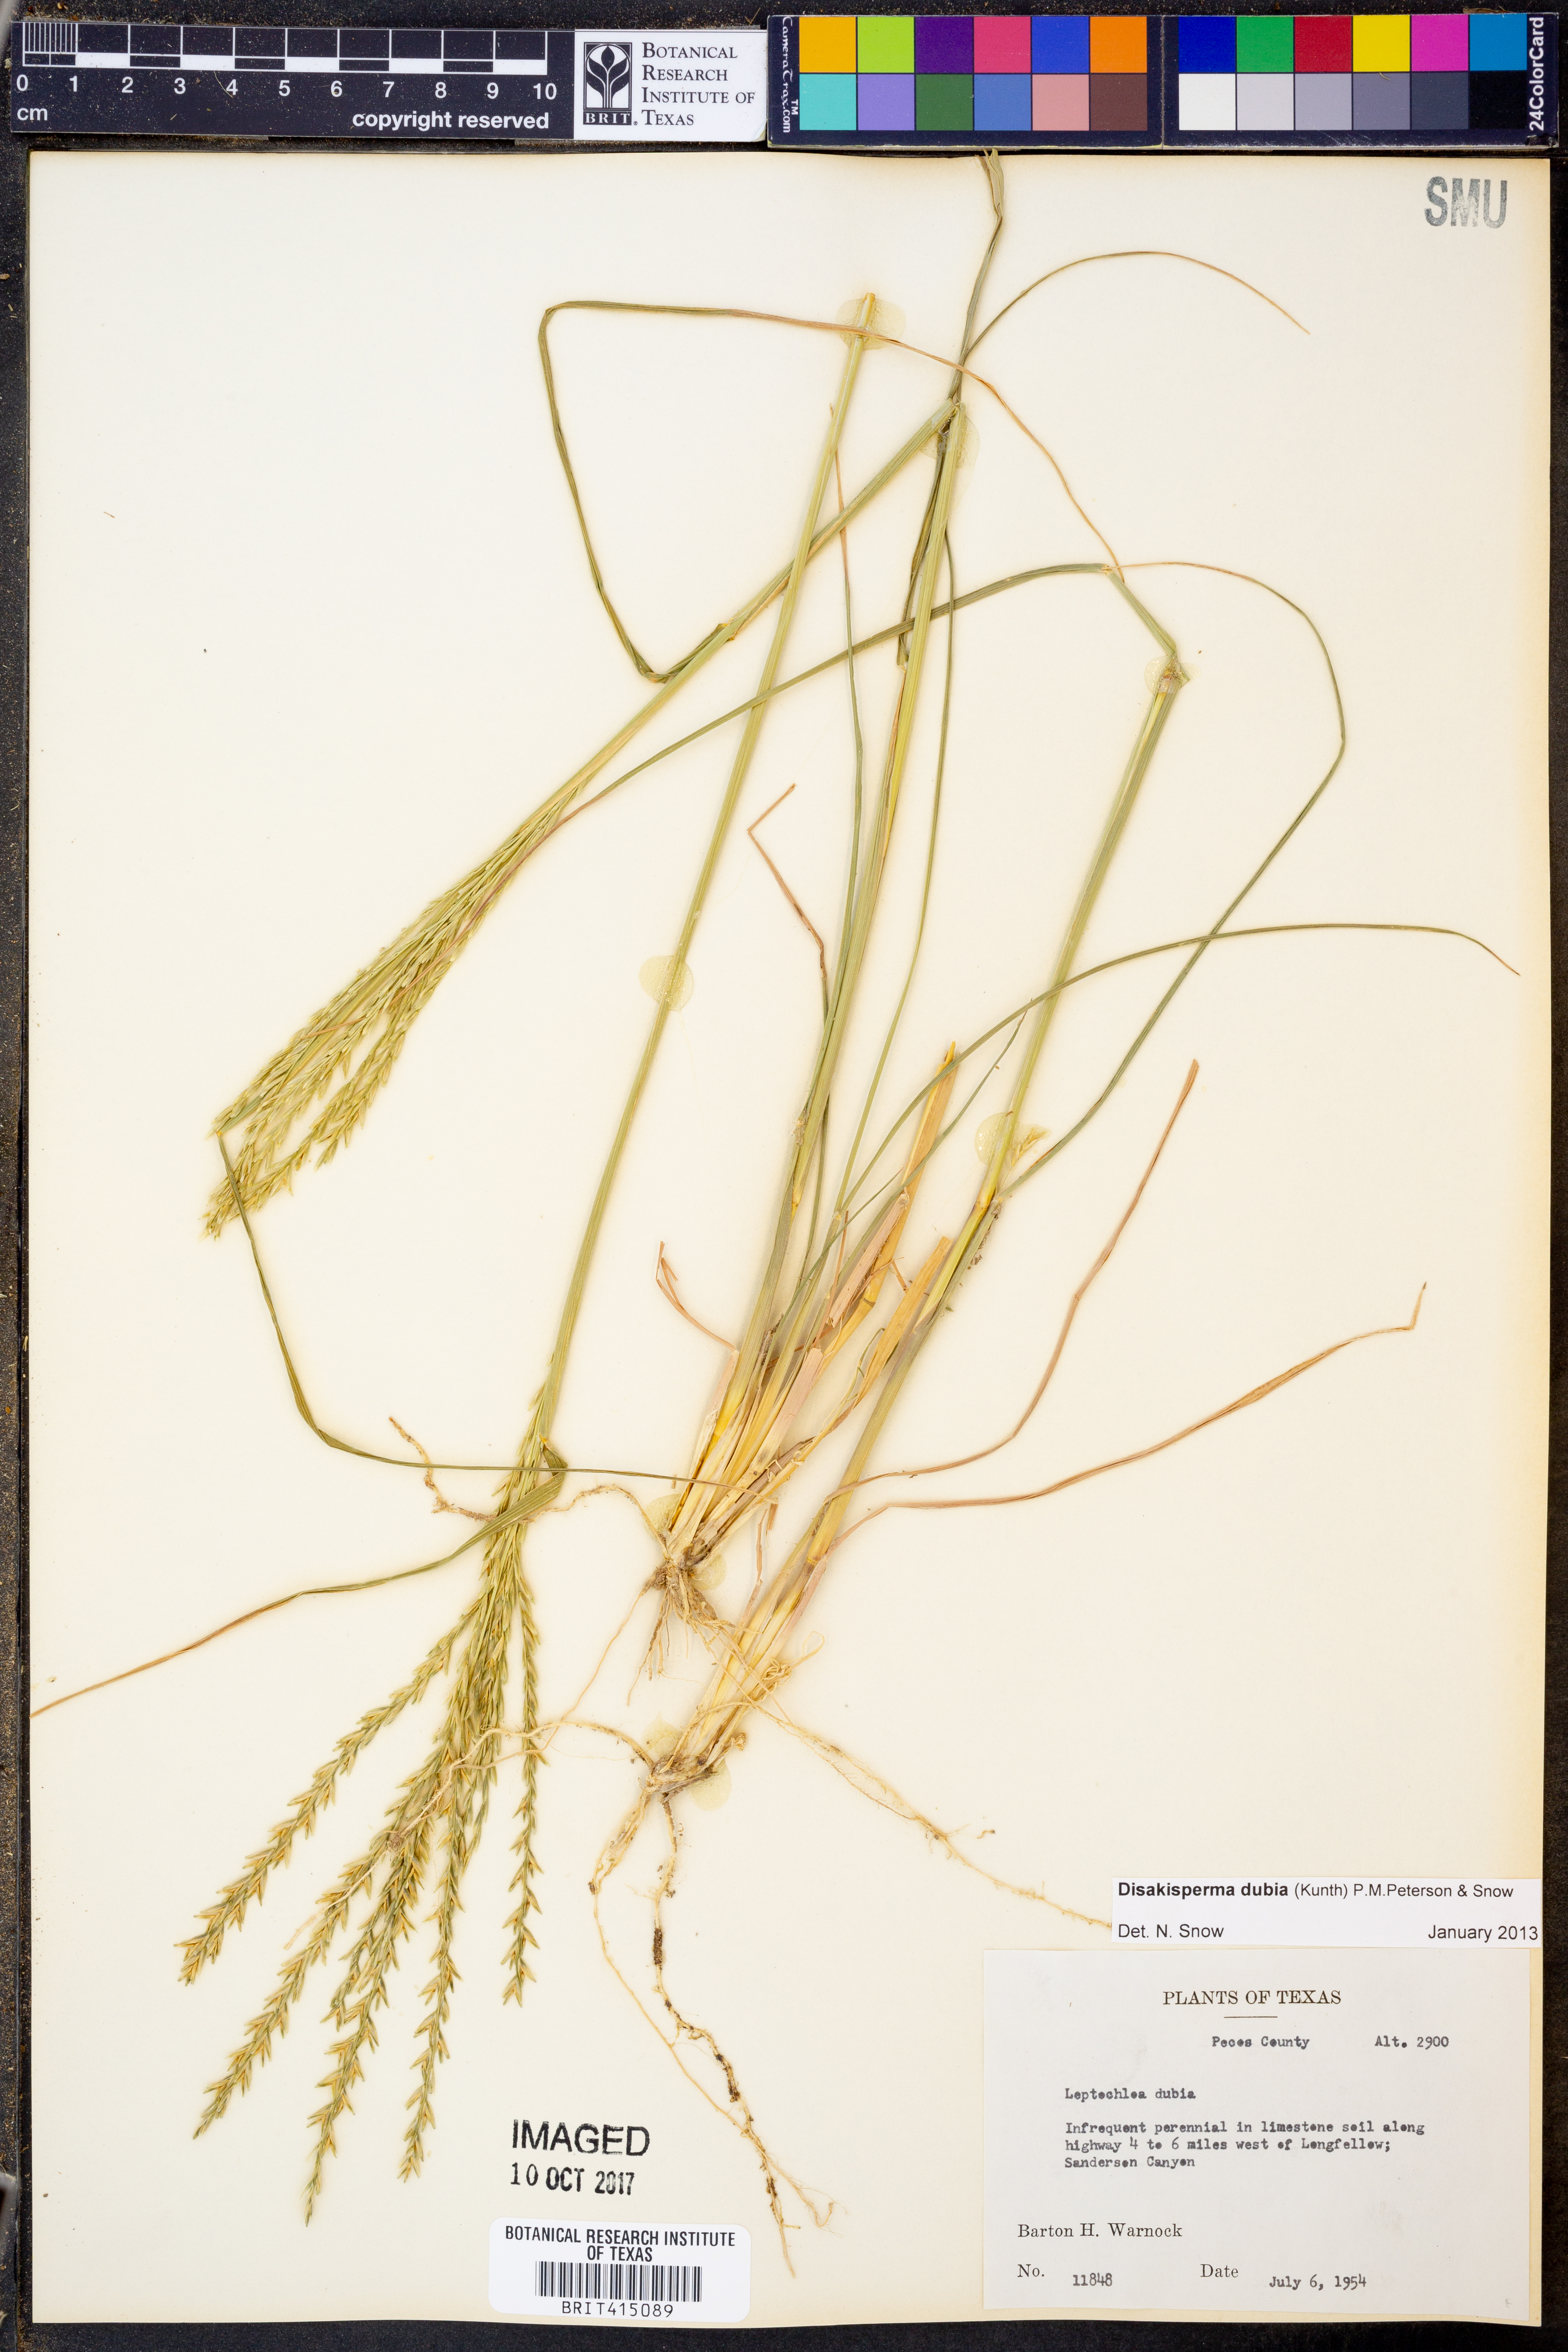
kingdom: Plantae
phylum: Tracheophyta
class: Liliopsida
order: Poales
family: Poaceae
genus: Disakisperma
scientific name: Disakisperma dubium
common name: Green sprangletop
